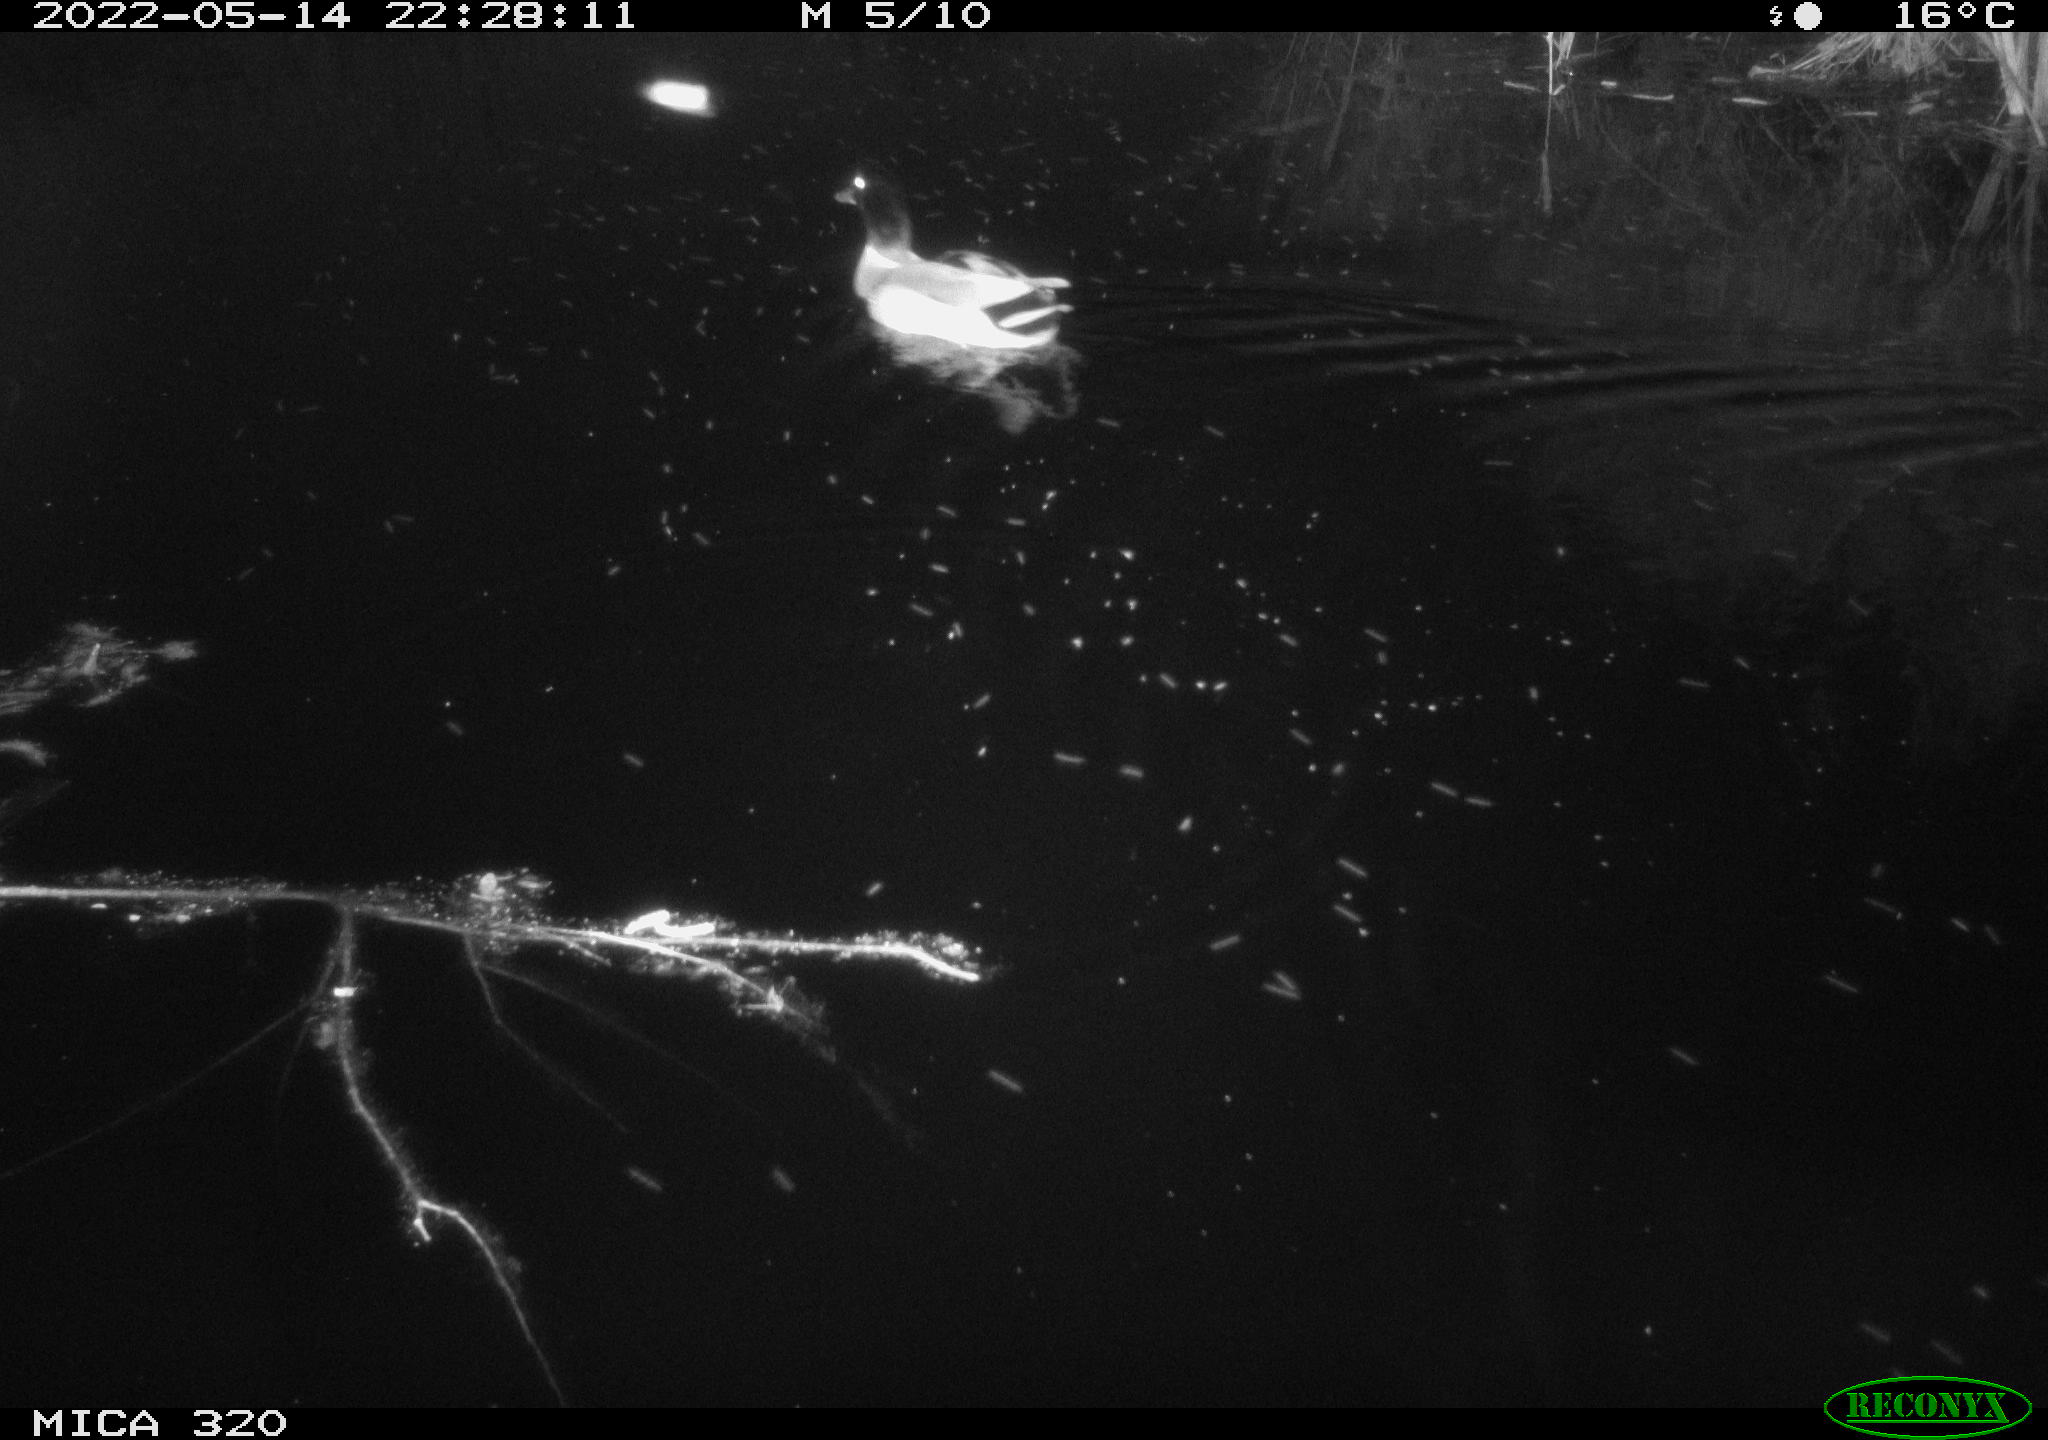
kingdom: Animalia
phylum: Chordata
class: Aves
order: Anseriformes
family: Anatidae
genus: Mareca
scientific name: Mareca strepera
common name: Gadwall
